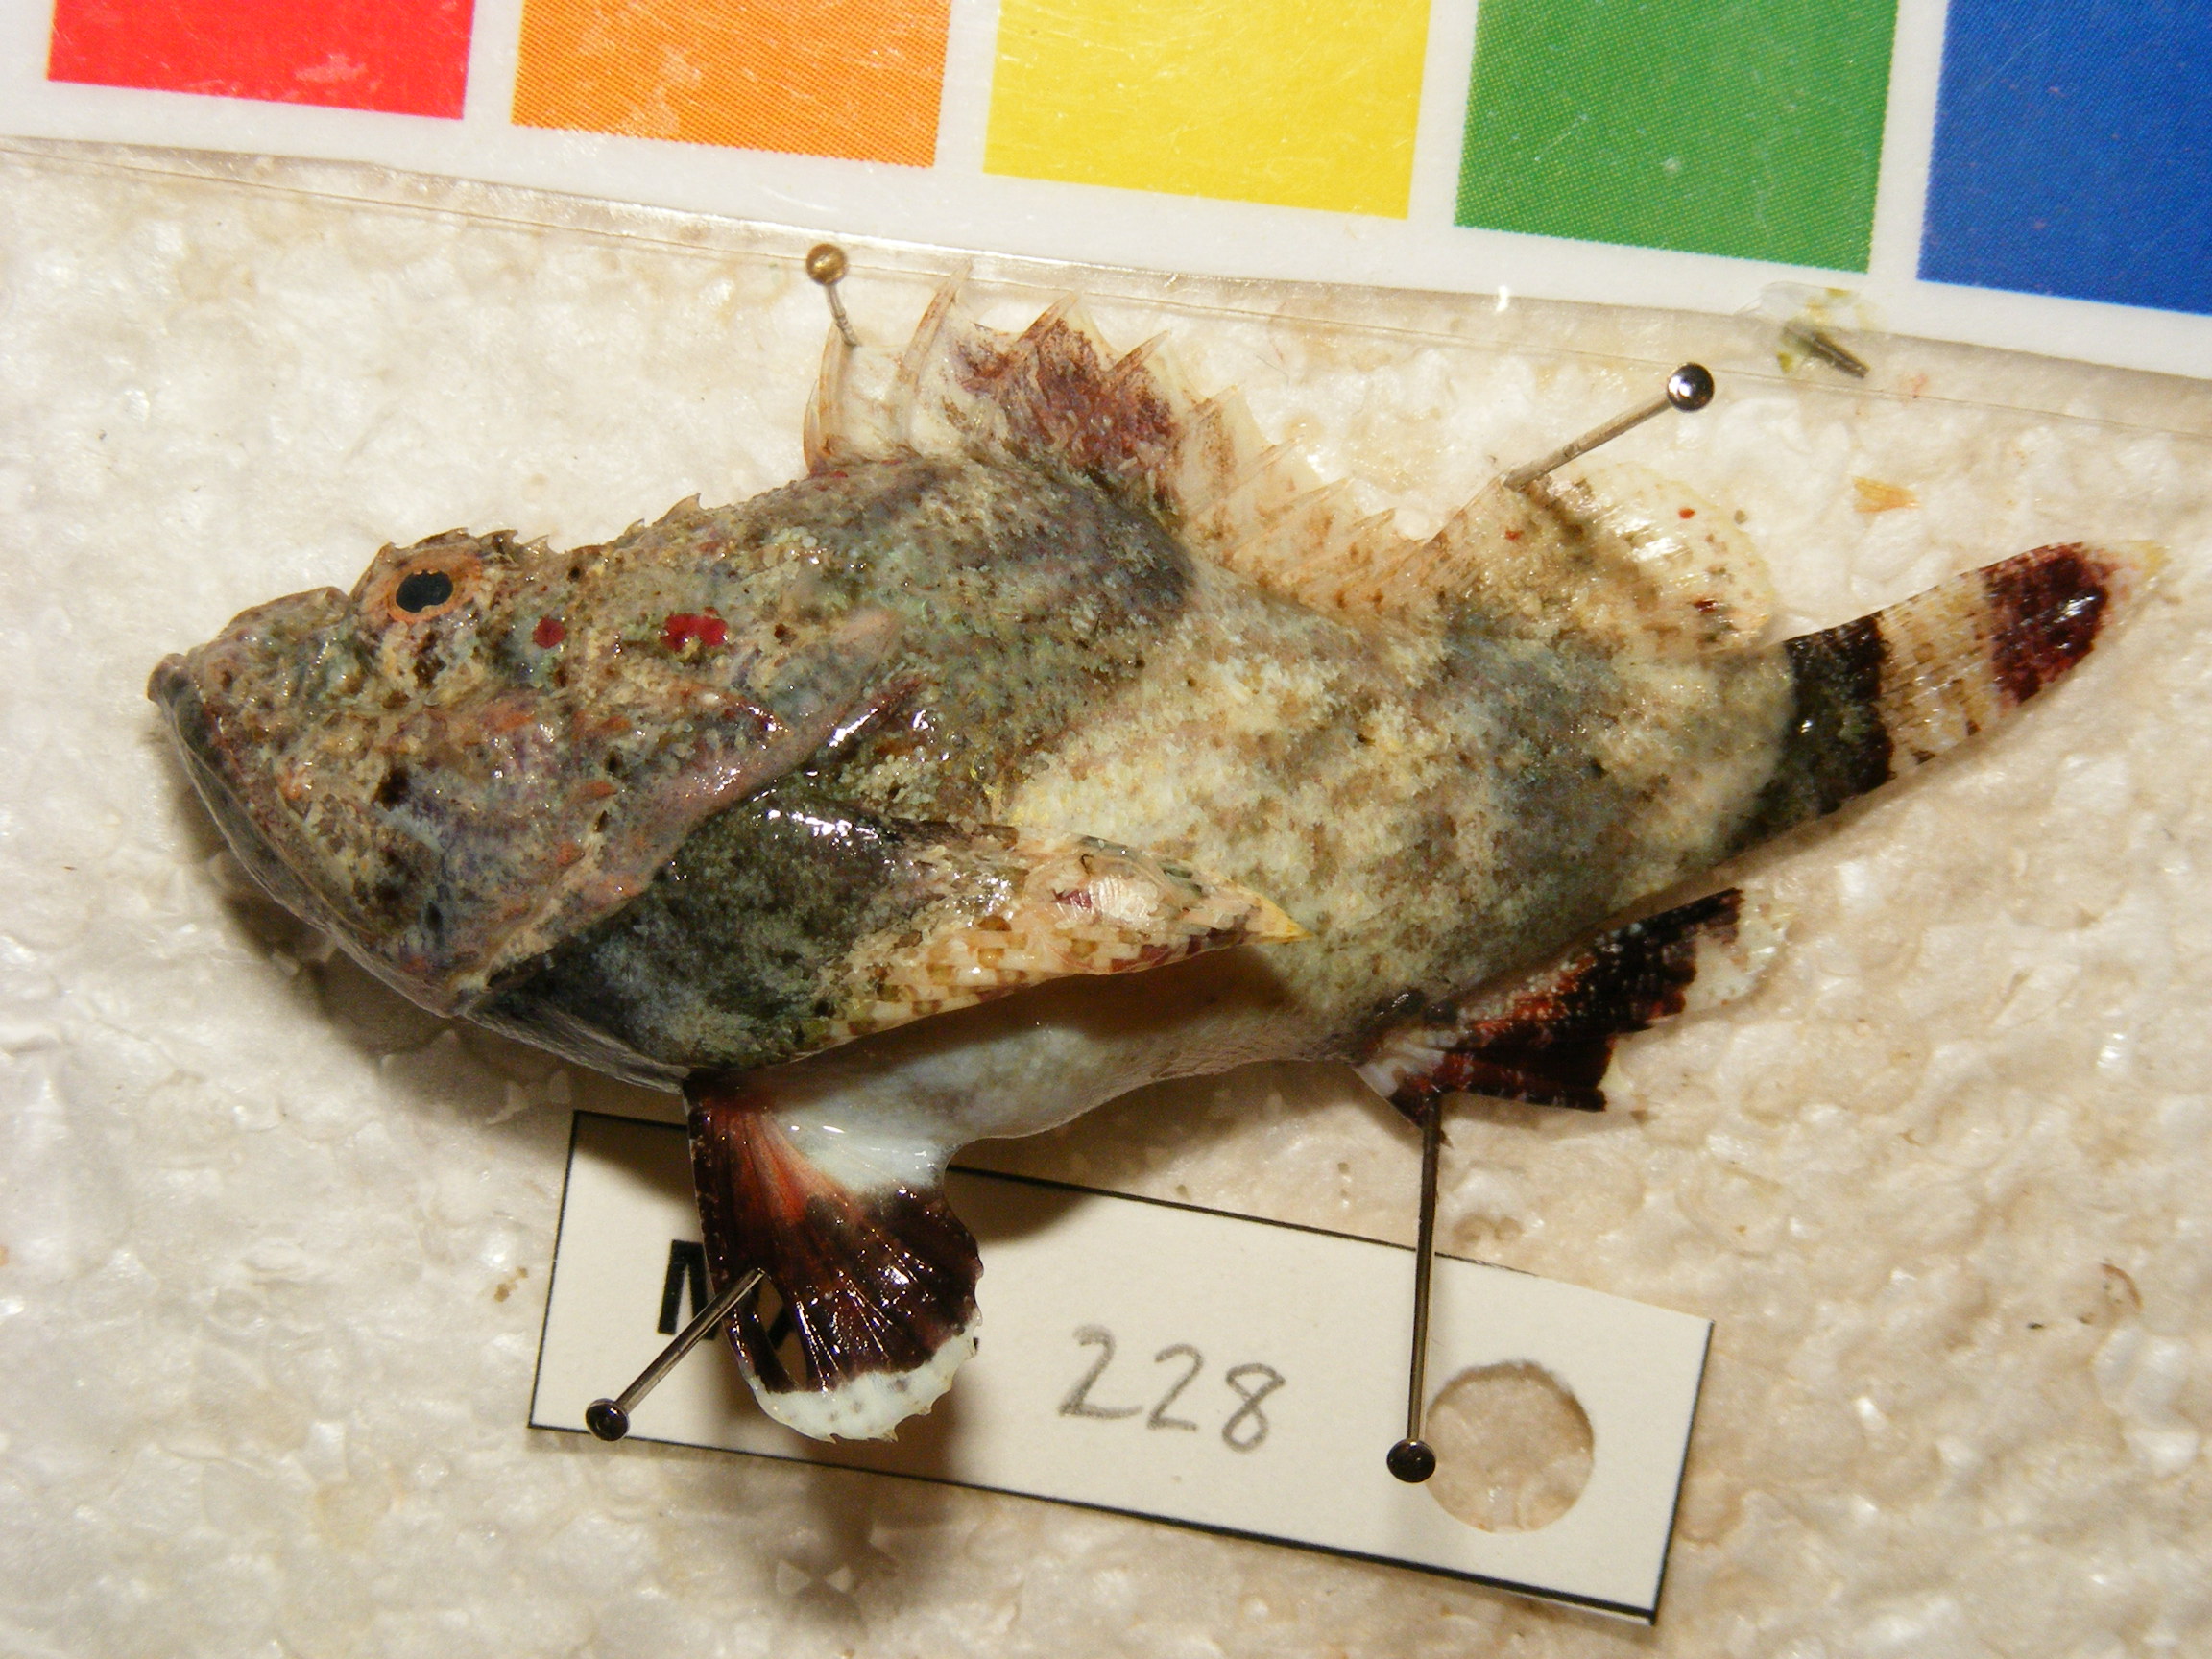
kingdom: Animalia
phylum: Chordata
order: Scorpaeniformes
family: Scorpaenidae
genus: Sebastapistes
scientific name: Sebastapistes
